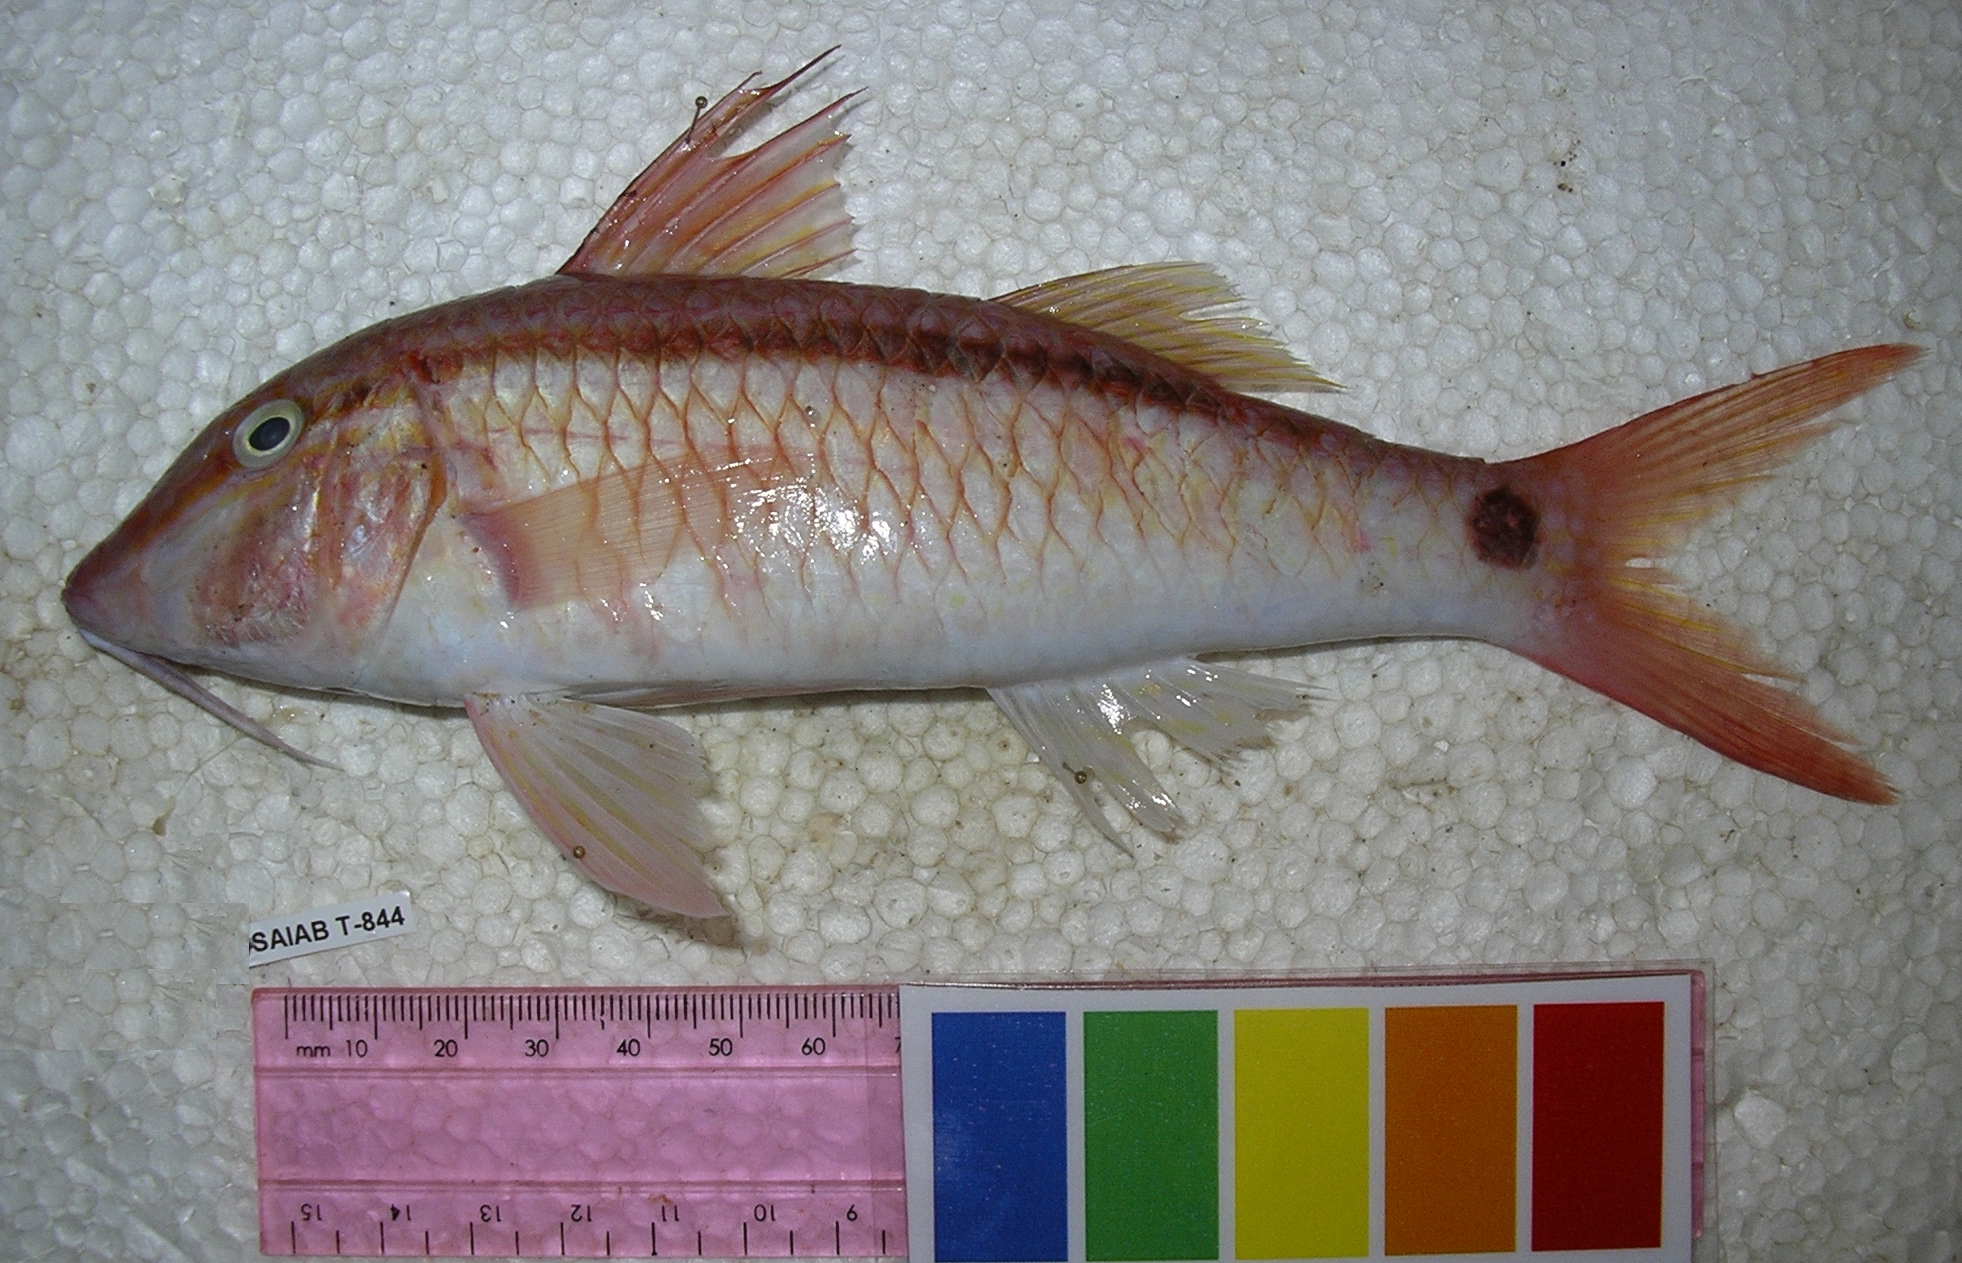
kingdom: Animalia
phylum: Chordata
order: Perciformes
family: Mullidae
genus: Parupeneus
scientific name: Parupeneus barberinus
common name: Dash-and-dot goatfish
